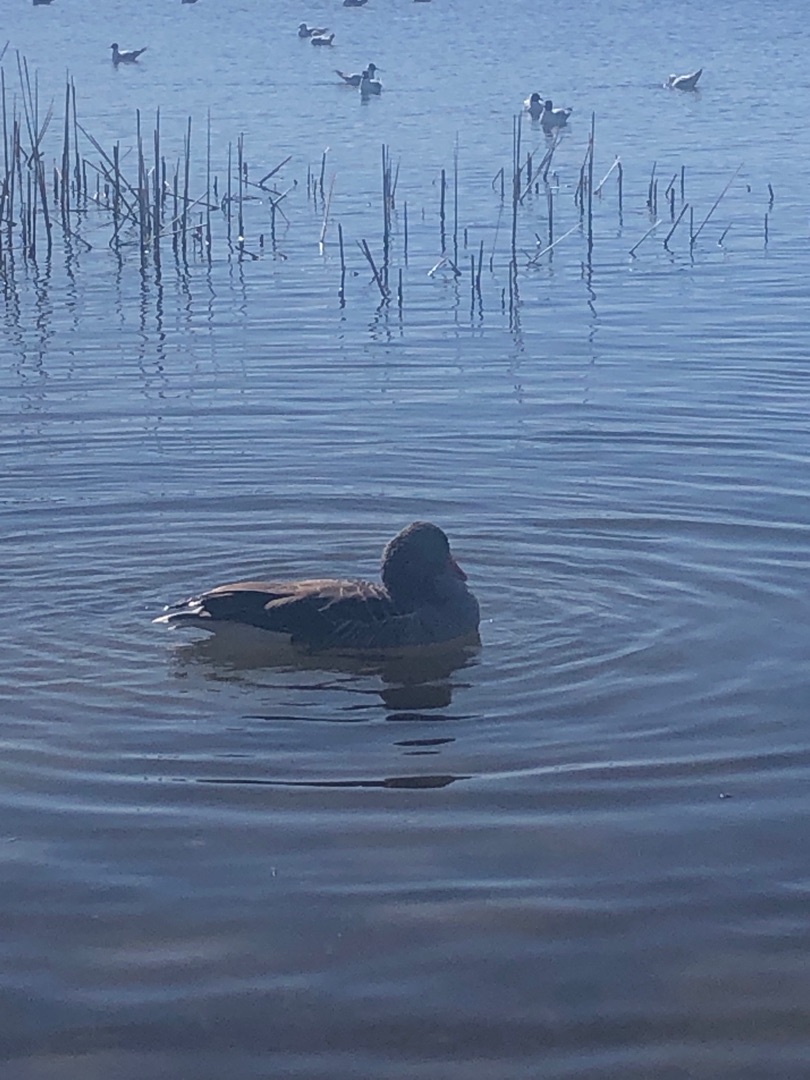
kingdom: Animalia
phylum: Chordata
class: Aves
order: Anseriformes
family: Anatidae
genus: Anser
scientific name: Anser anser
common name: Grågås
